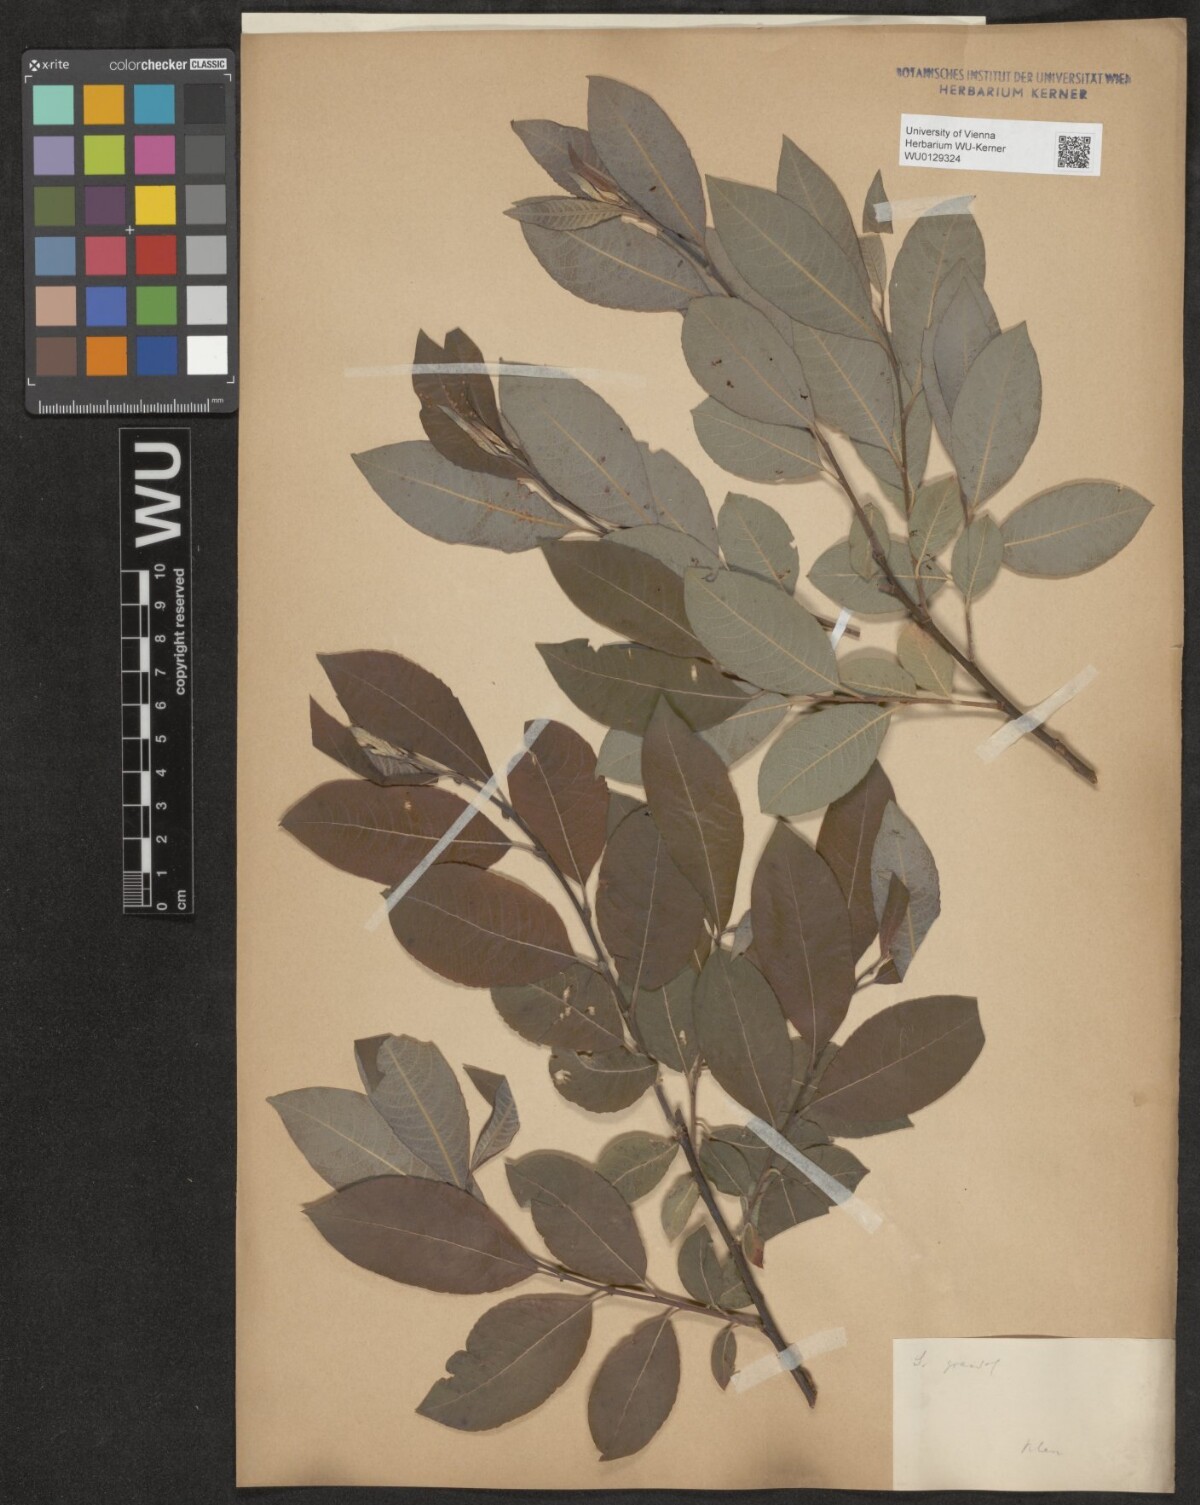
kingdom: Plantae
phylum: Tracheophyta
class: Magnoliopsida
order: Malpighiales
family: Salicaceae
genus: Salix
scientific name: Salix appendiculata
